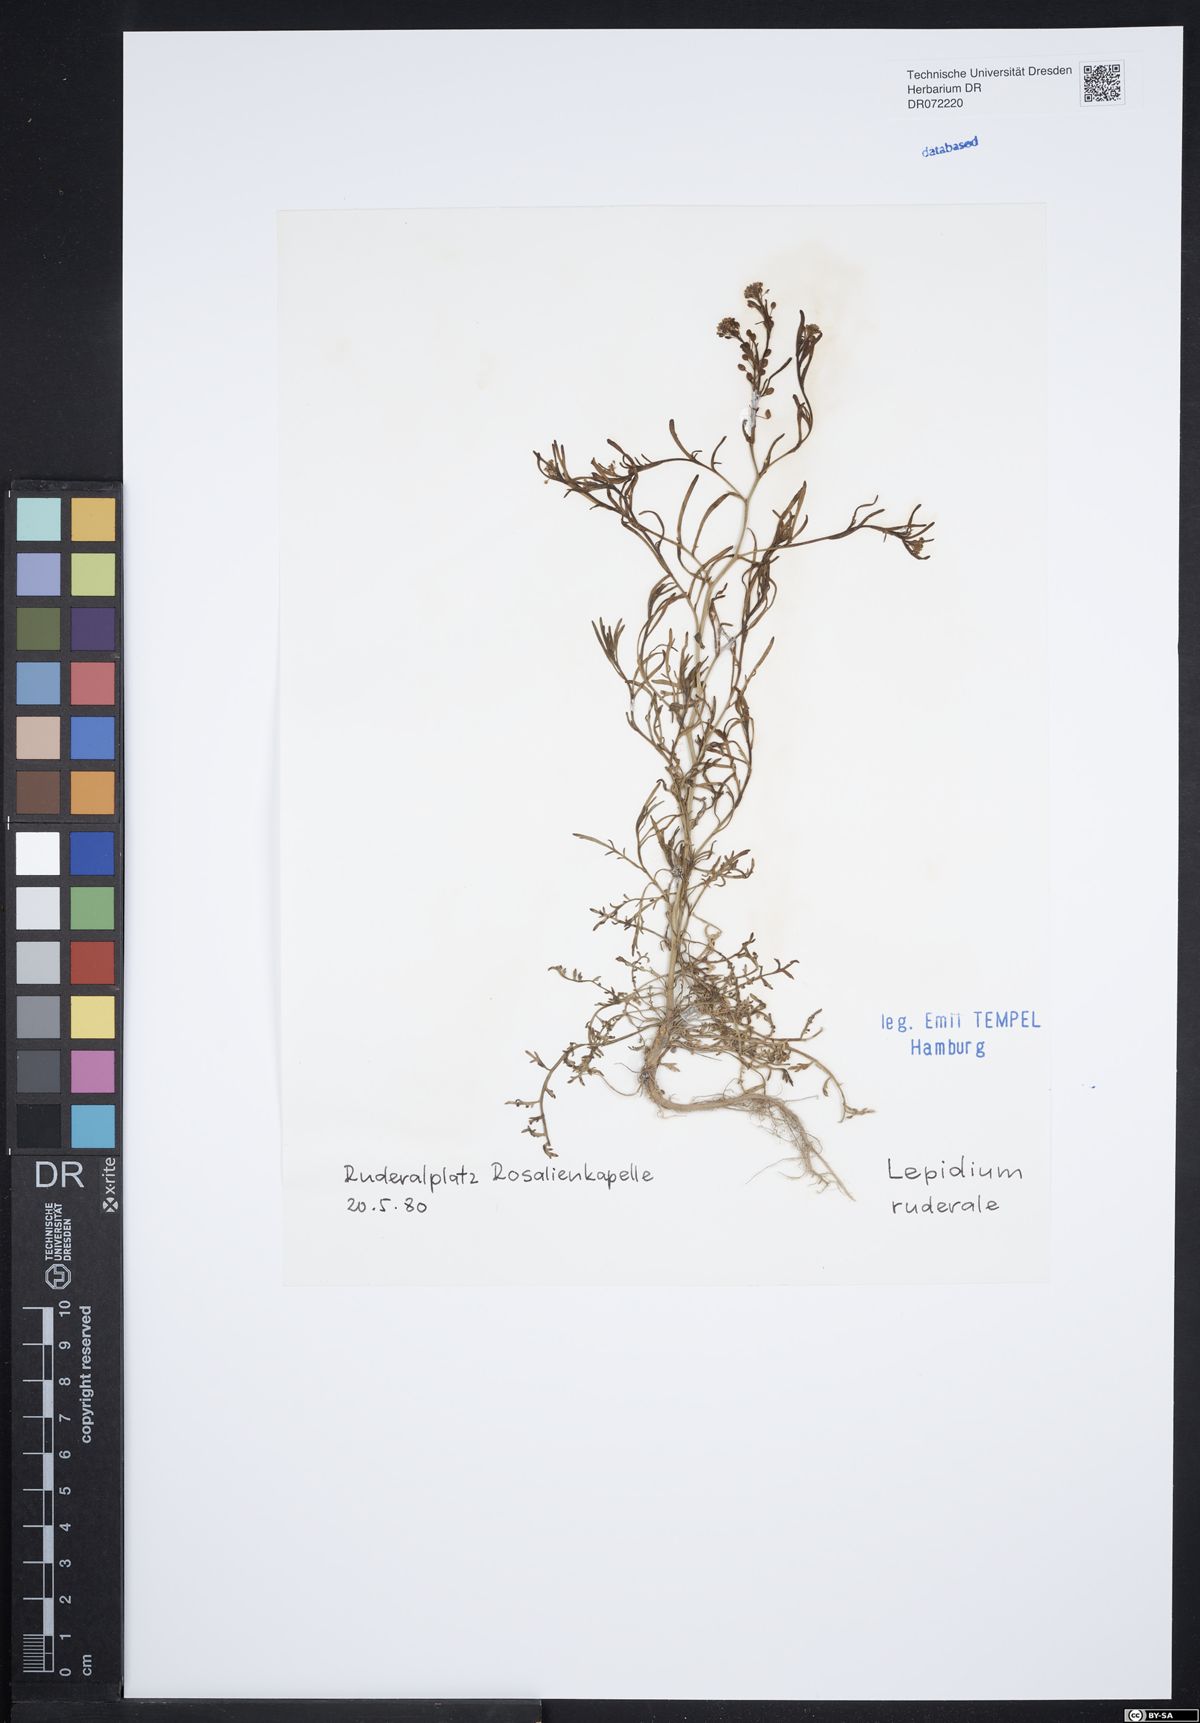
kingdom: Plantae
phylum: Tracheophyta
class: Magnoliopsida
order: Brassicales
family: Brassicaceae
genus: Lepidium
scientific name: Lepidium ruderale
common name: Narrow-leaved pepperwort
